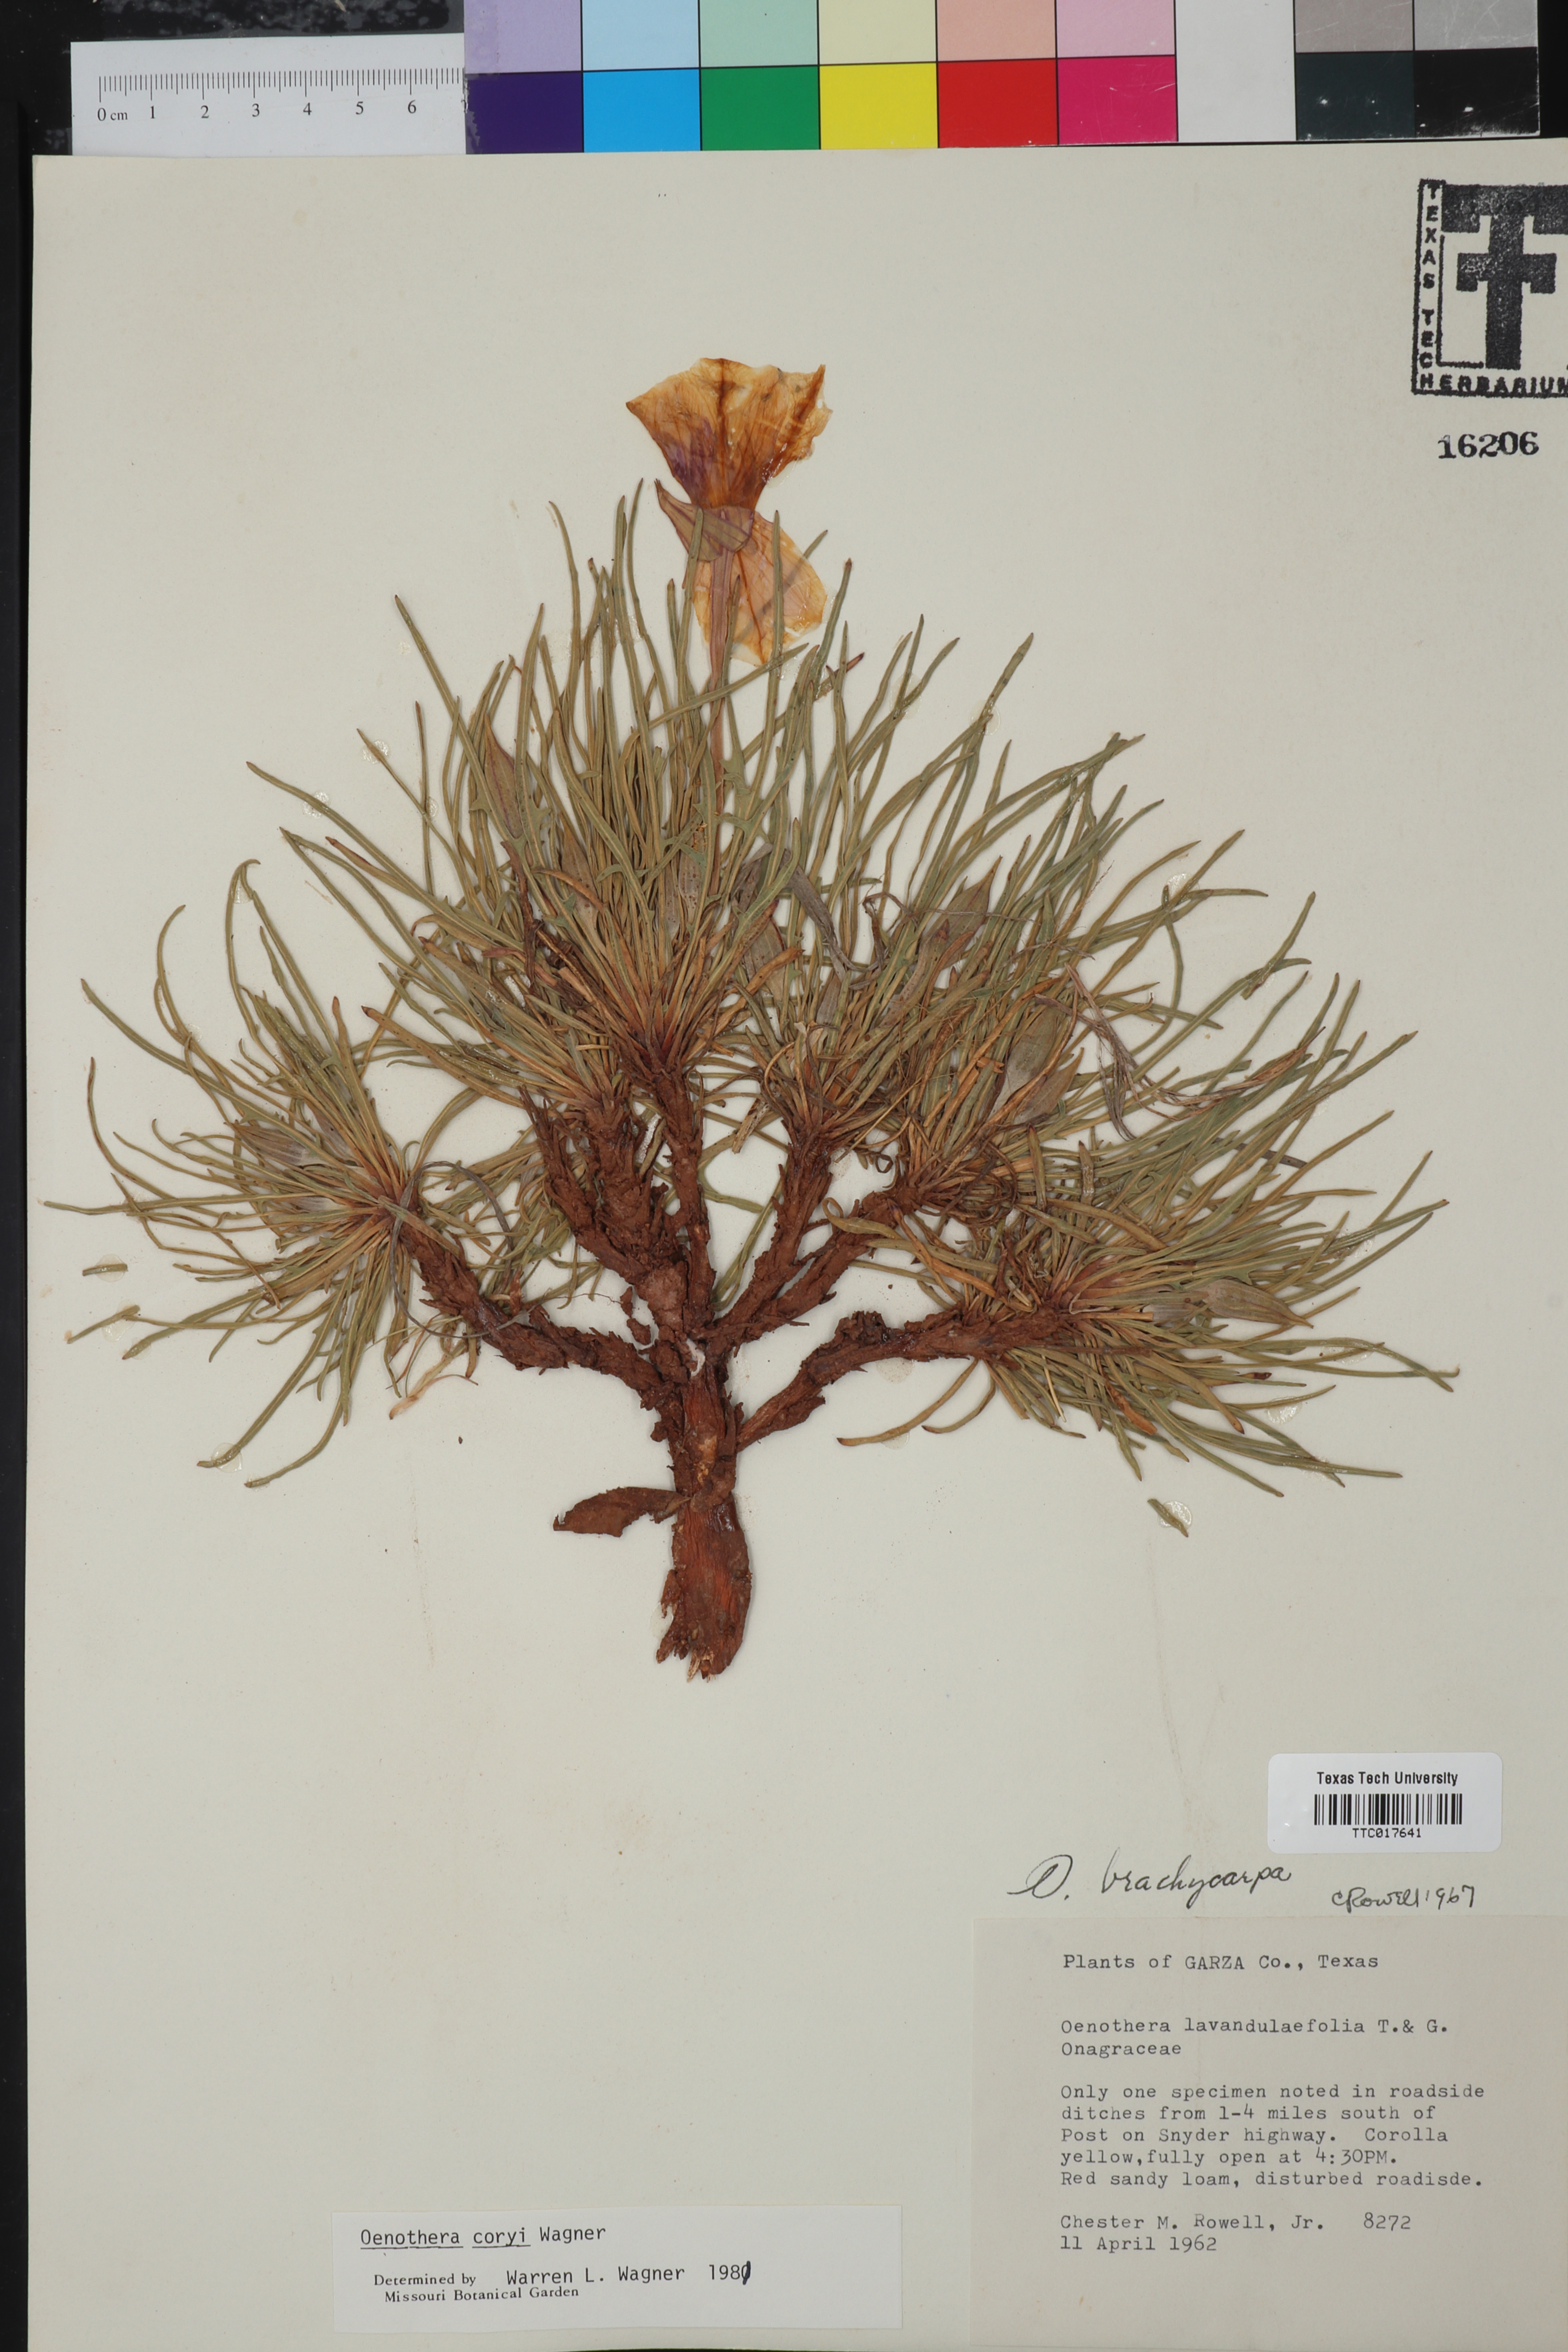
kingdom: Plantae
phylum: Tracheophyta
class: Magnoliopsida
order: Myrtales
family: Onagraceae
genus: Oenothera
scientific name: Oenothera coryi
